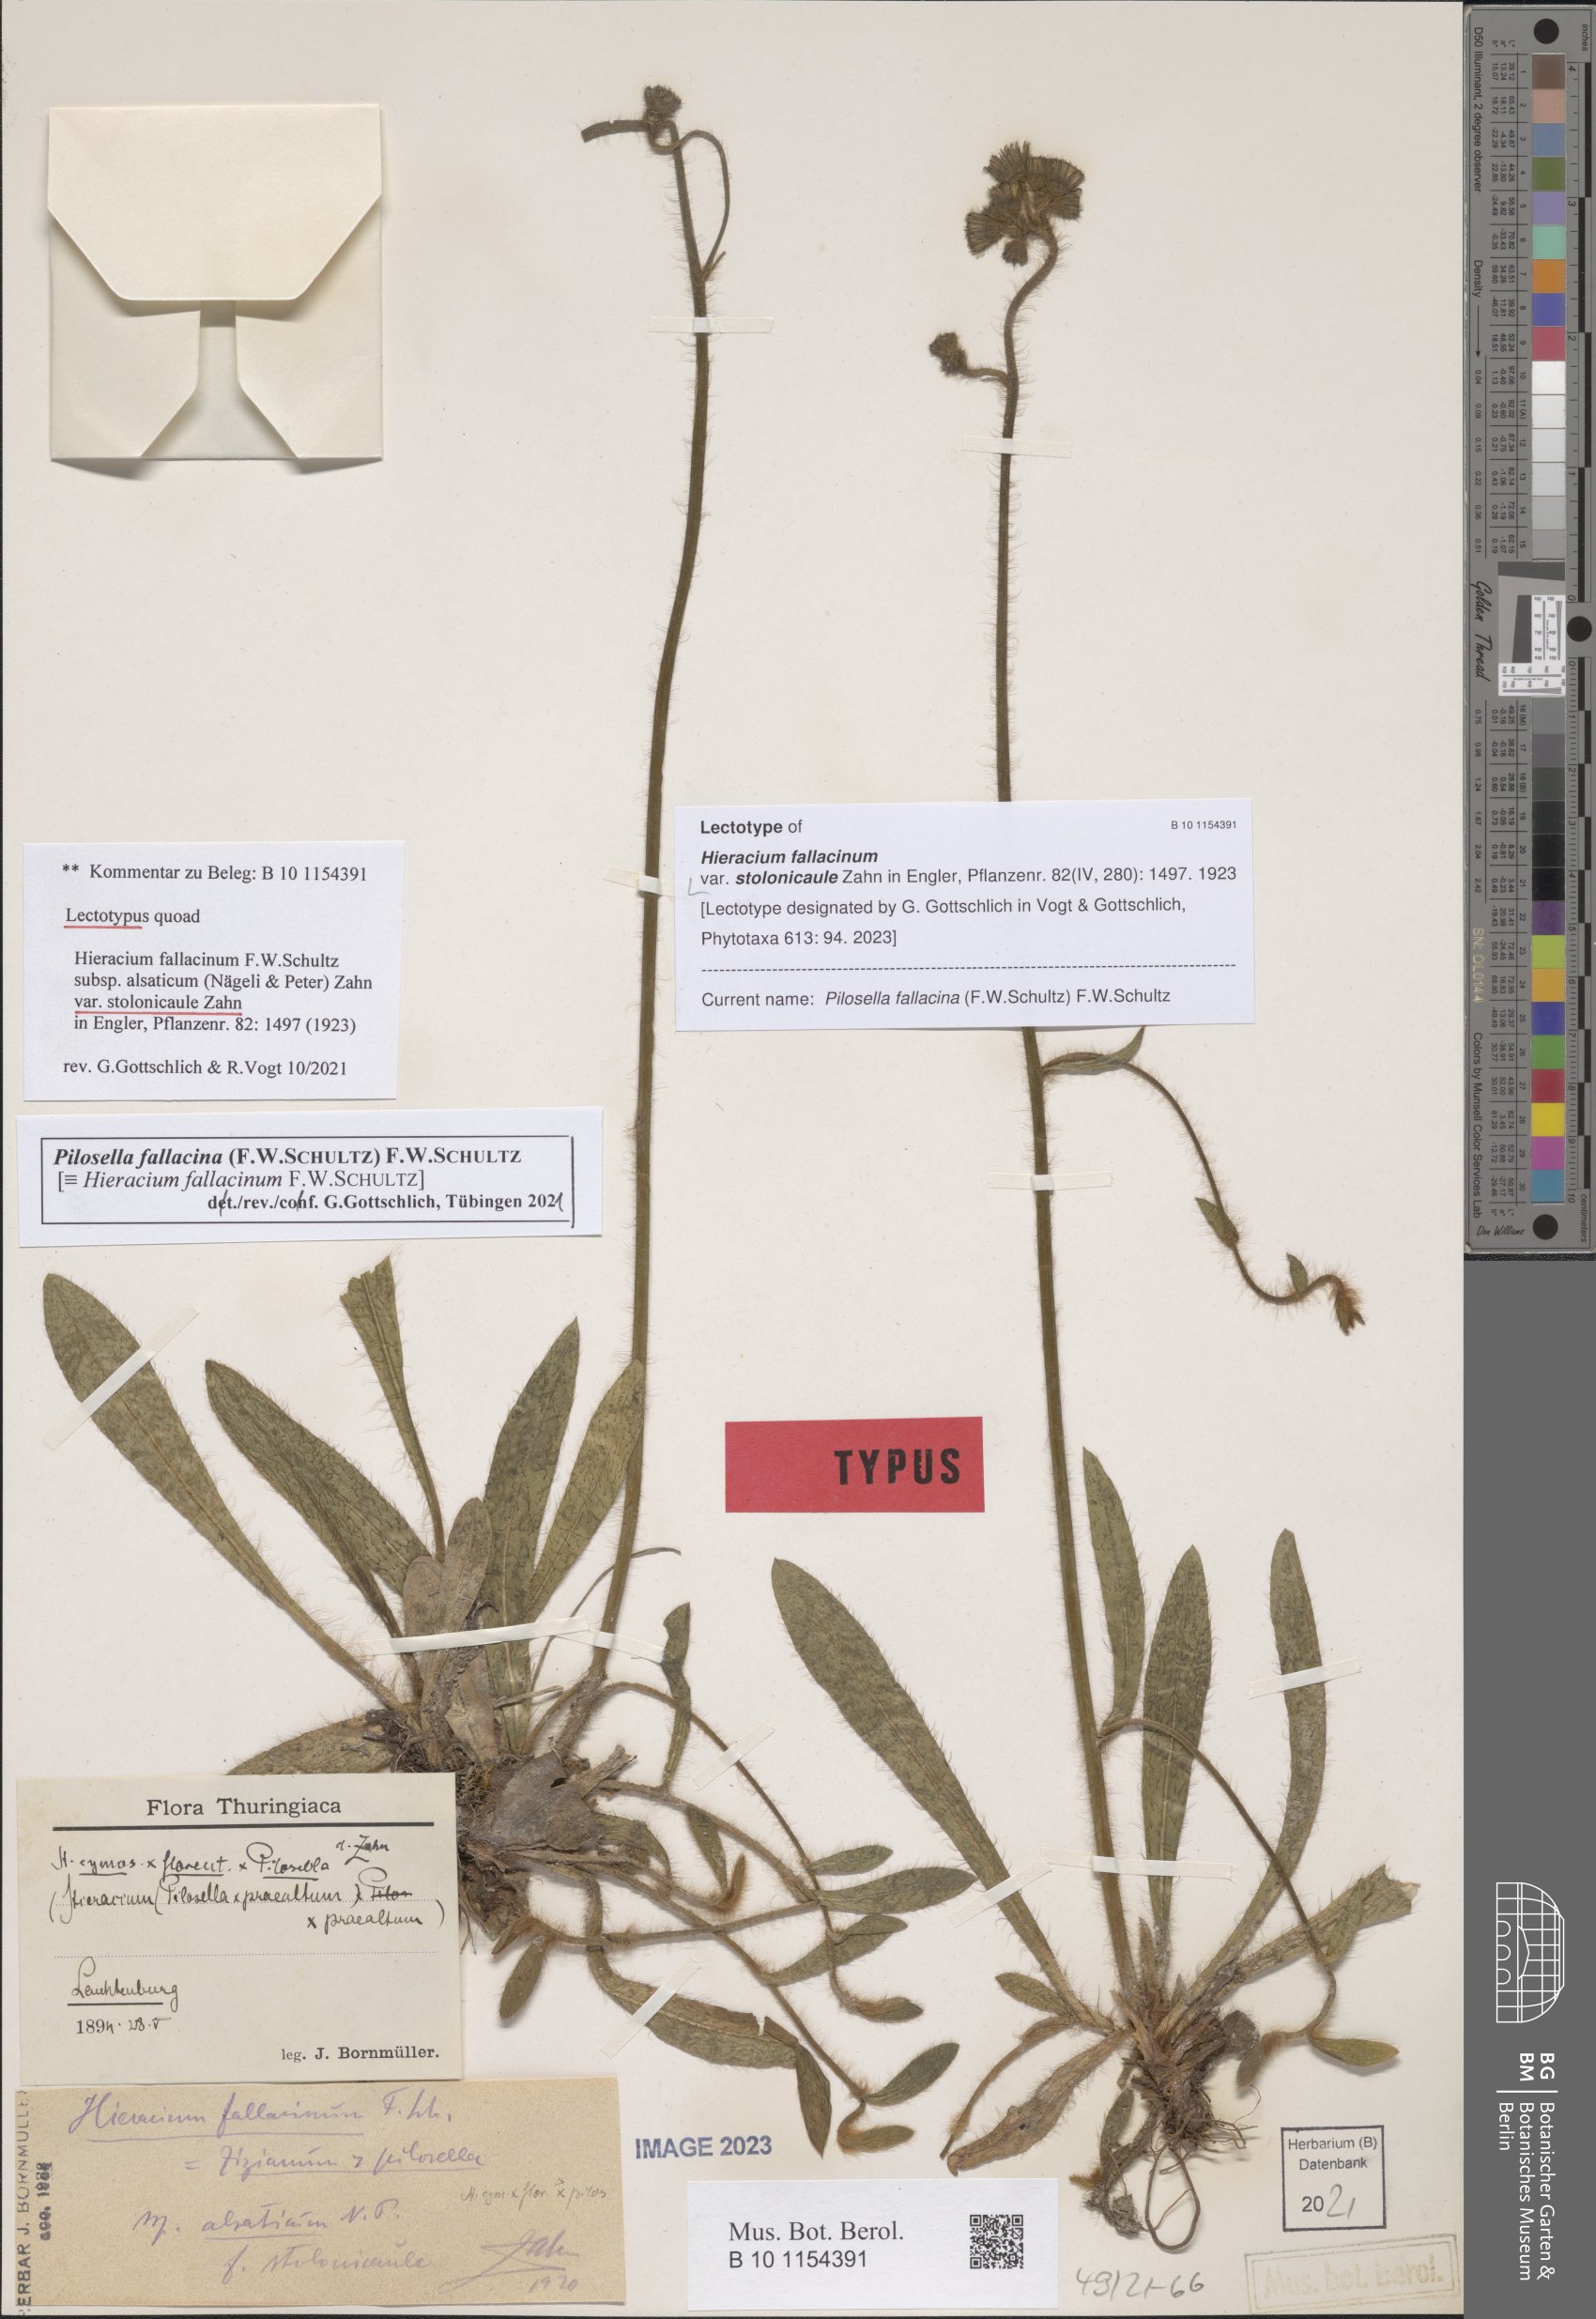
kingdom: Plantae
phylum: Tracheophyta
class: Magnoliopsida
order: Asterales
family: Asteraceae
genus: Hieracium
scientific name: Hieracium fallacinum
